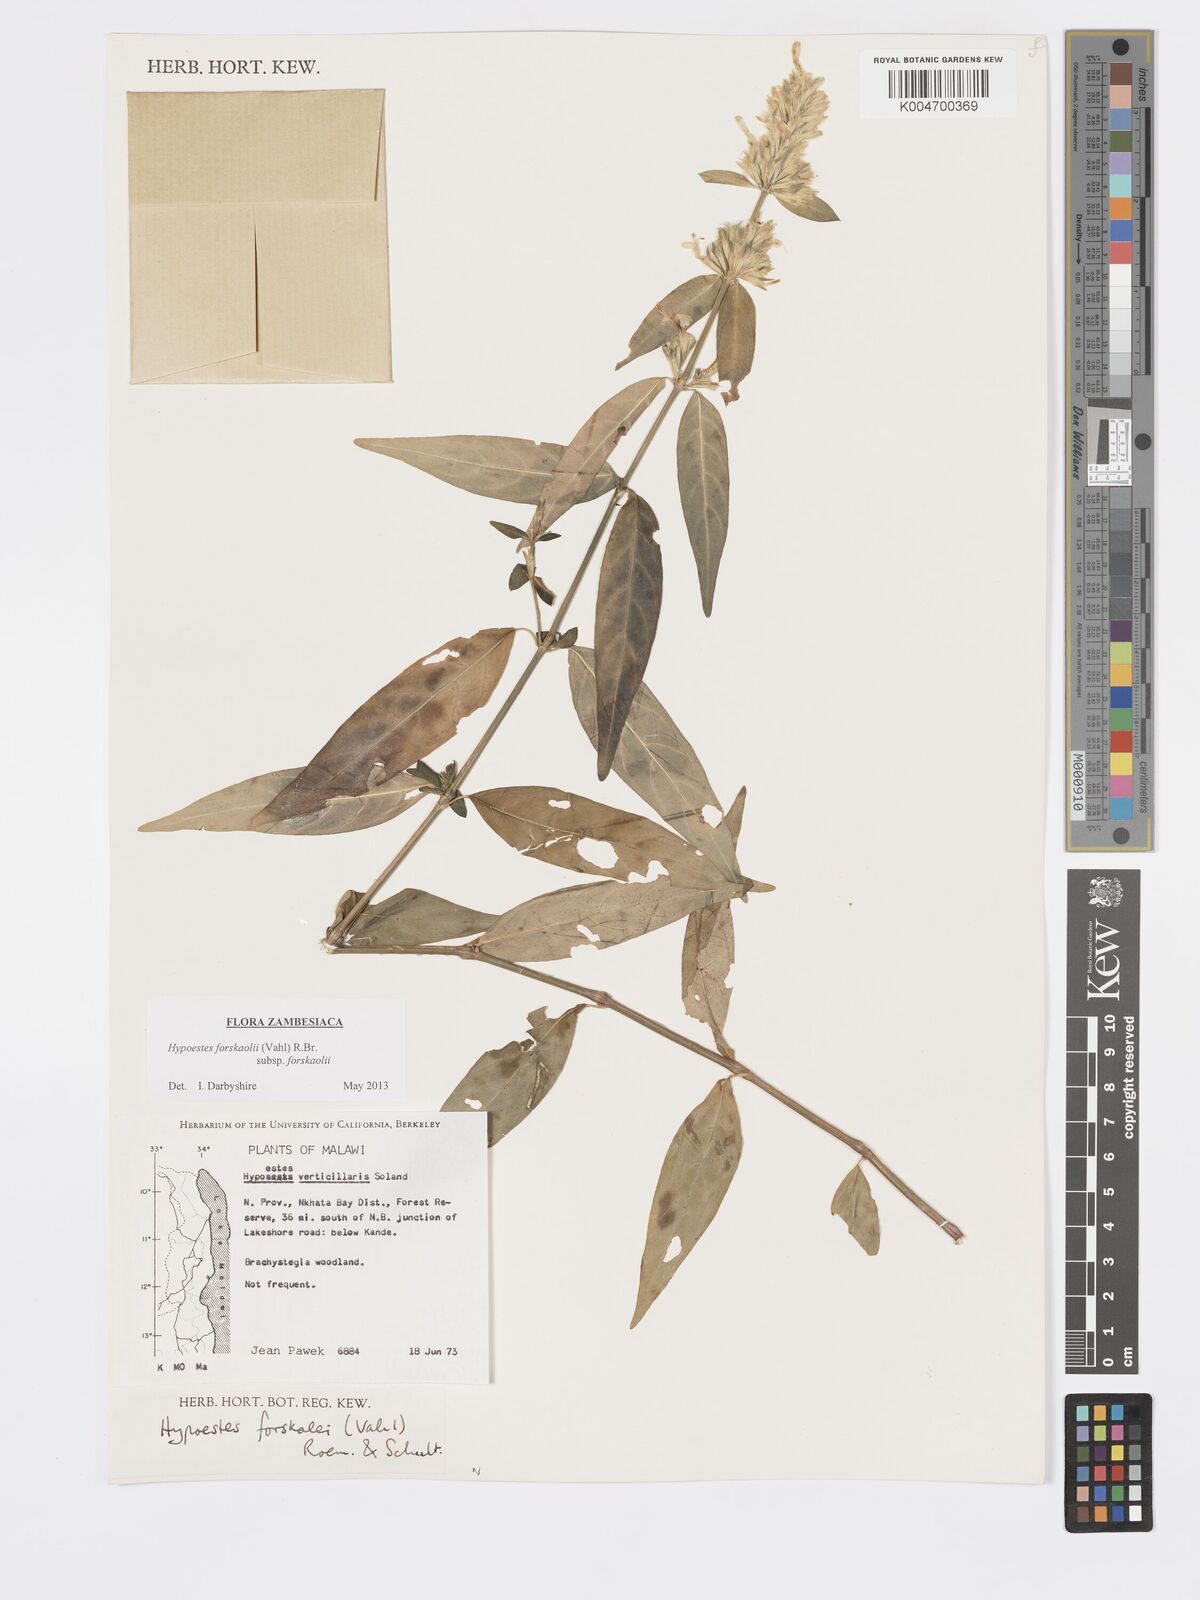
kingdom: Plantae
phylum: Tracheophyta
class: Magnoliopsida
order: Lamiales
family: Acanthaceae
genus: Hypoestes
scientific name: Hypoestes forskaolii
